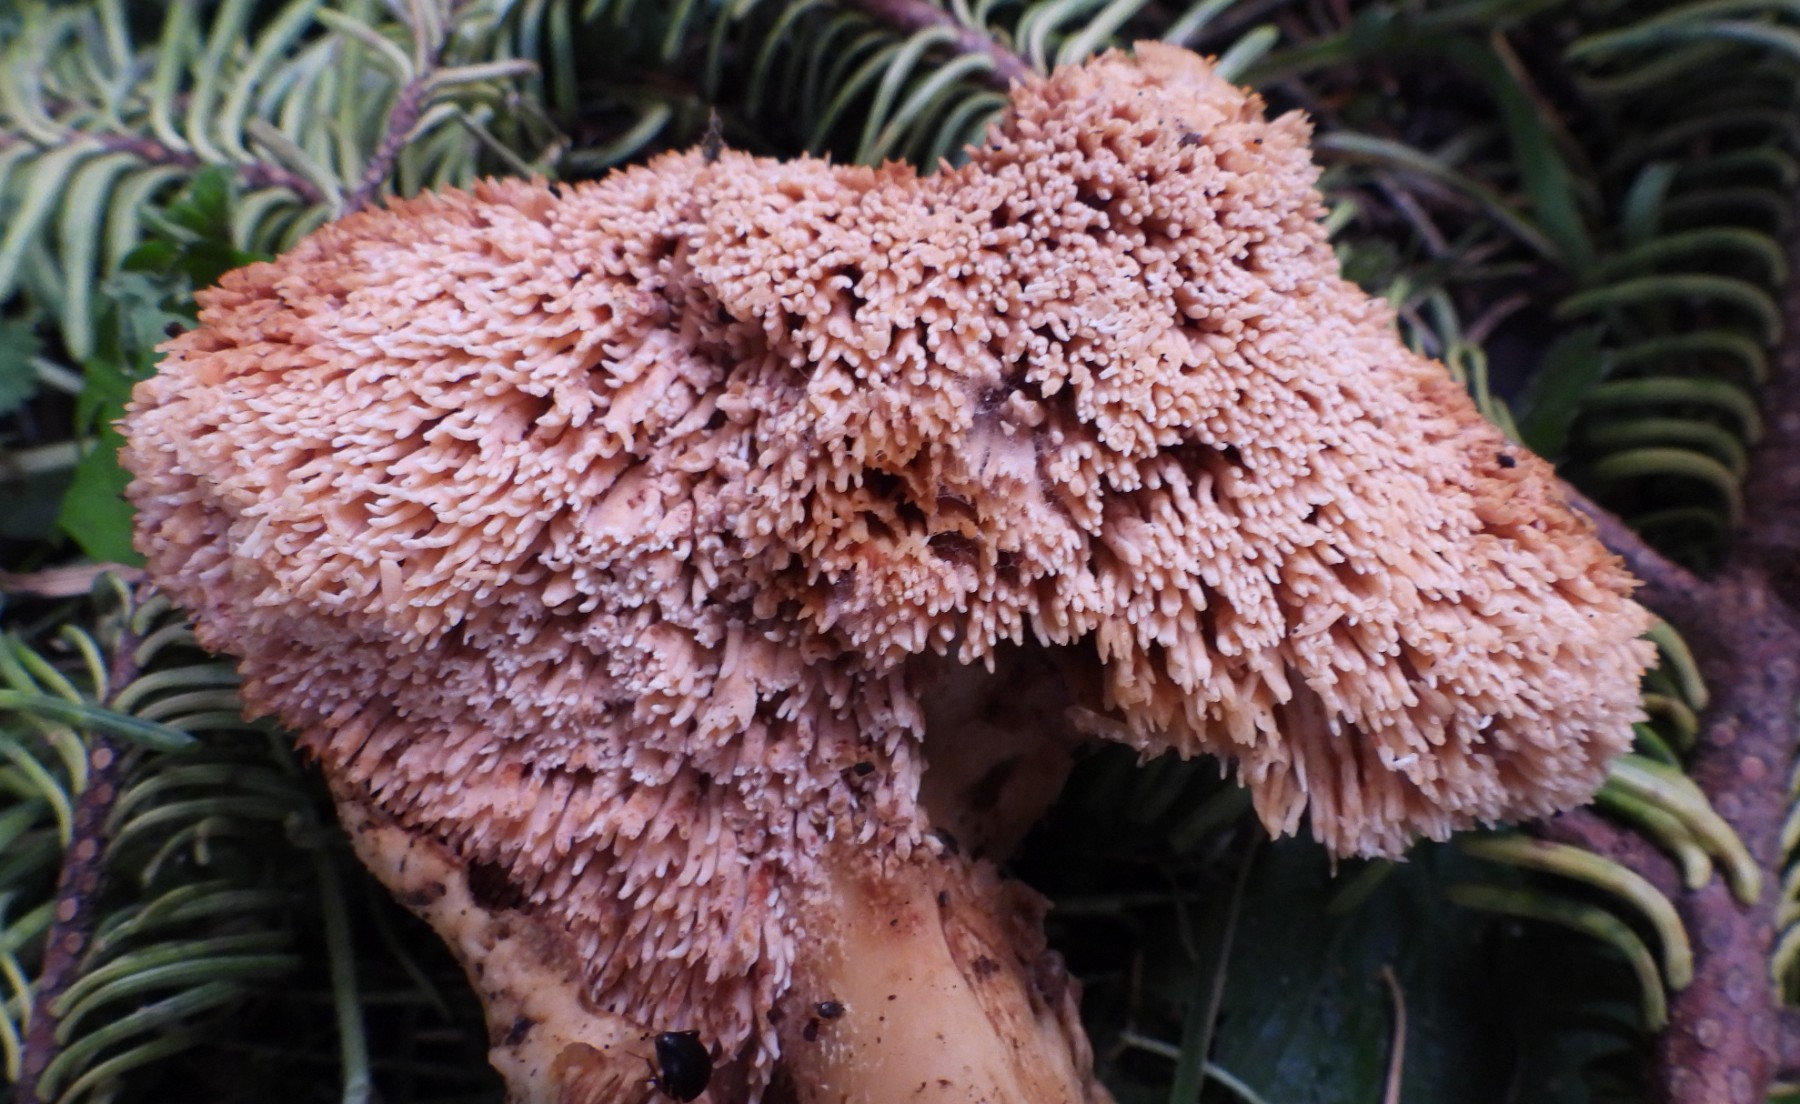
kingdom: Fungi
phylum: Basidiomycota
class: Agaricomycetes
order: Cantharellales
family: Hydnaceae
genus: Hydnum
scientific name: Hydnum
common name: pigsvamp
